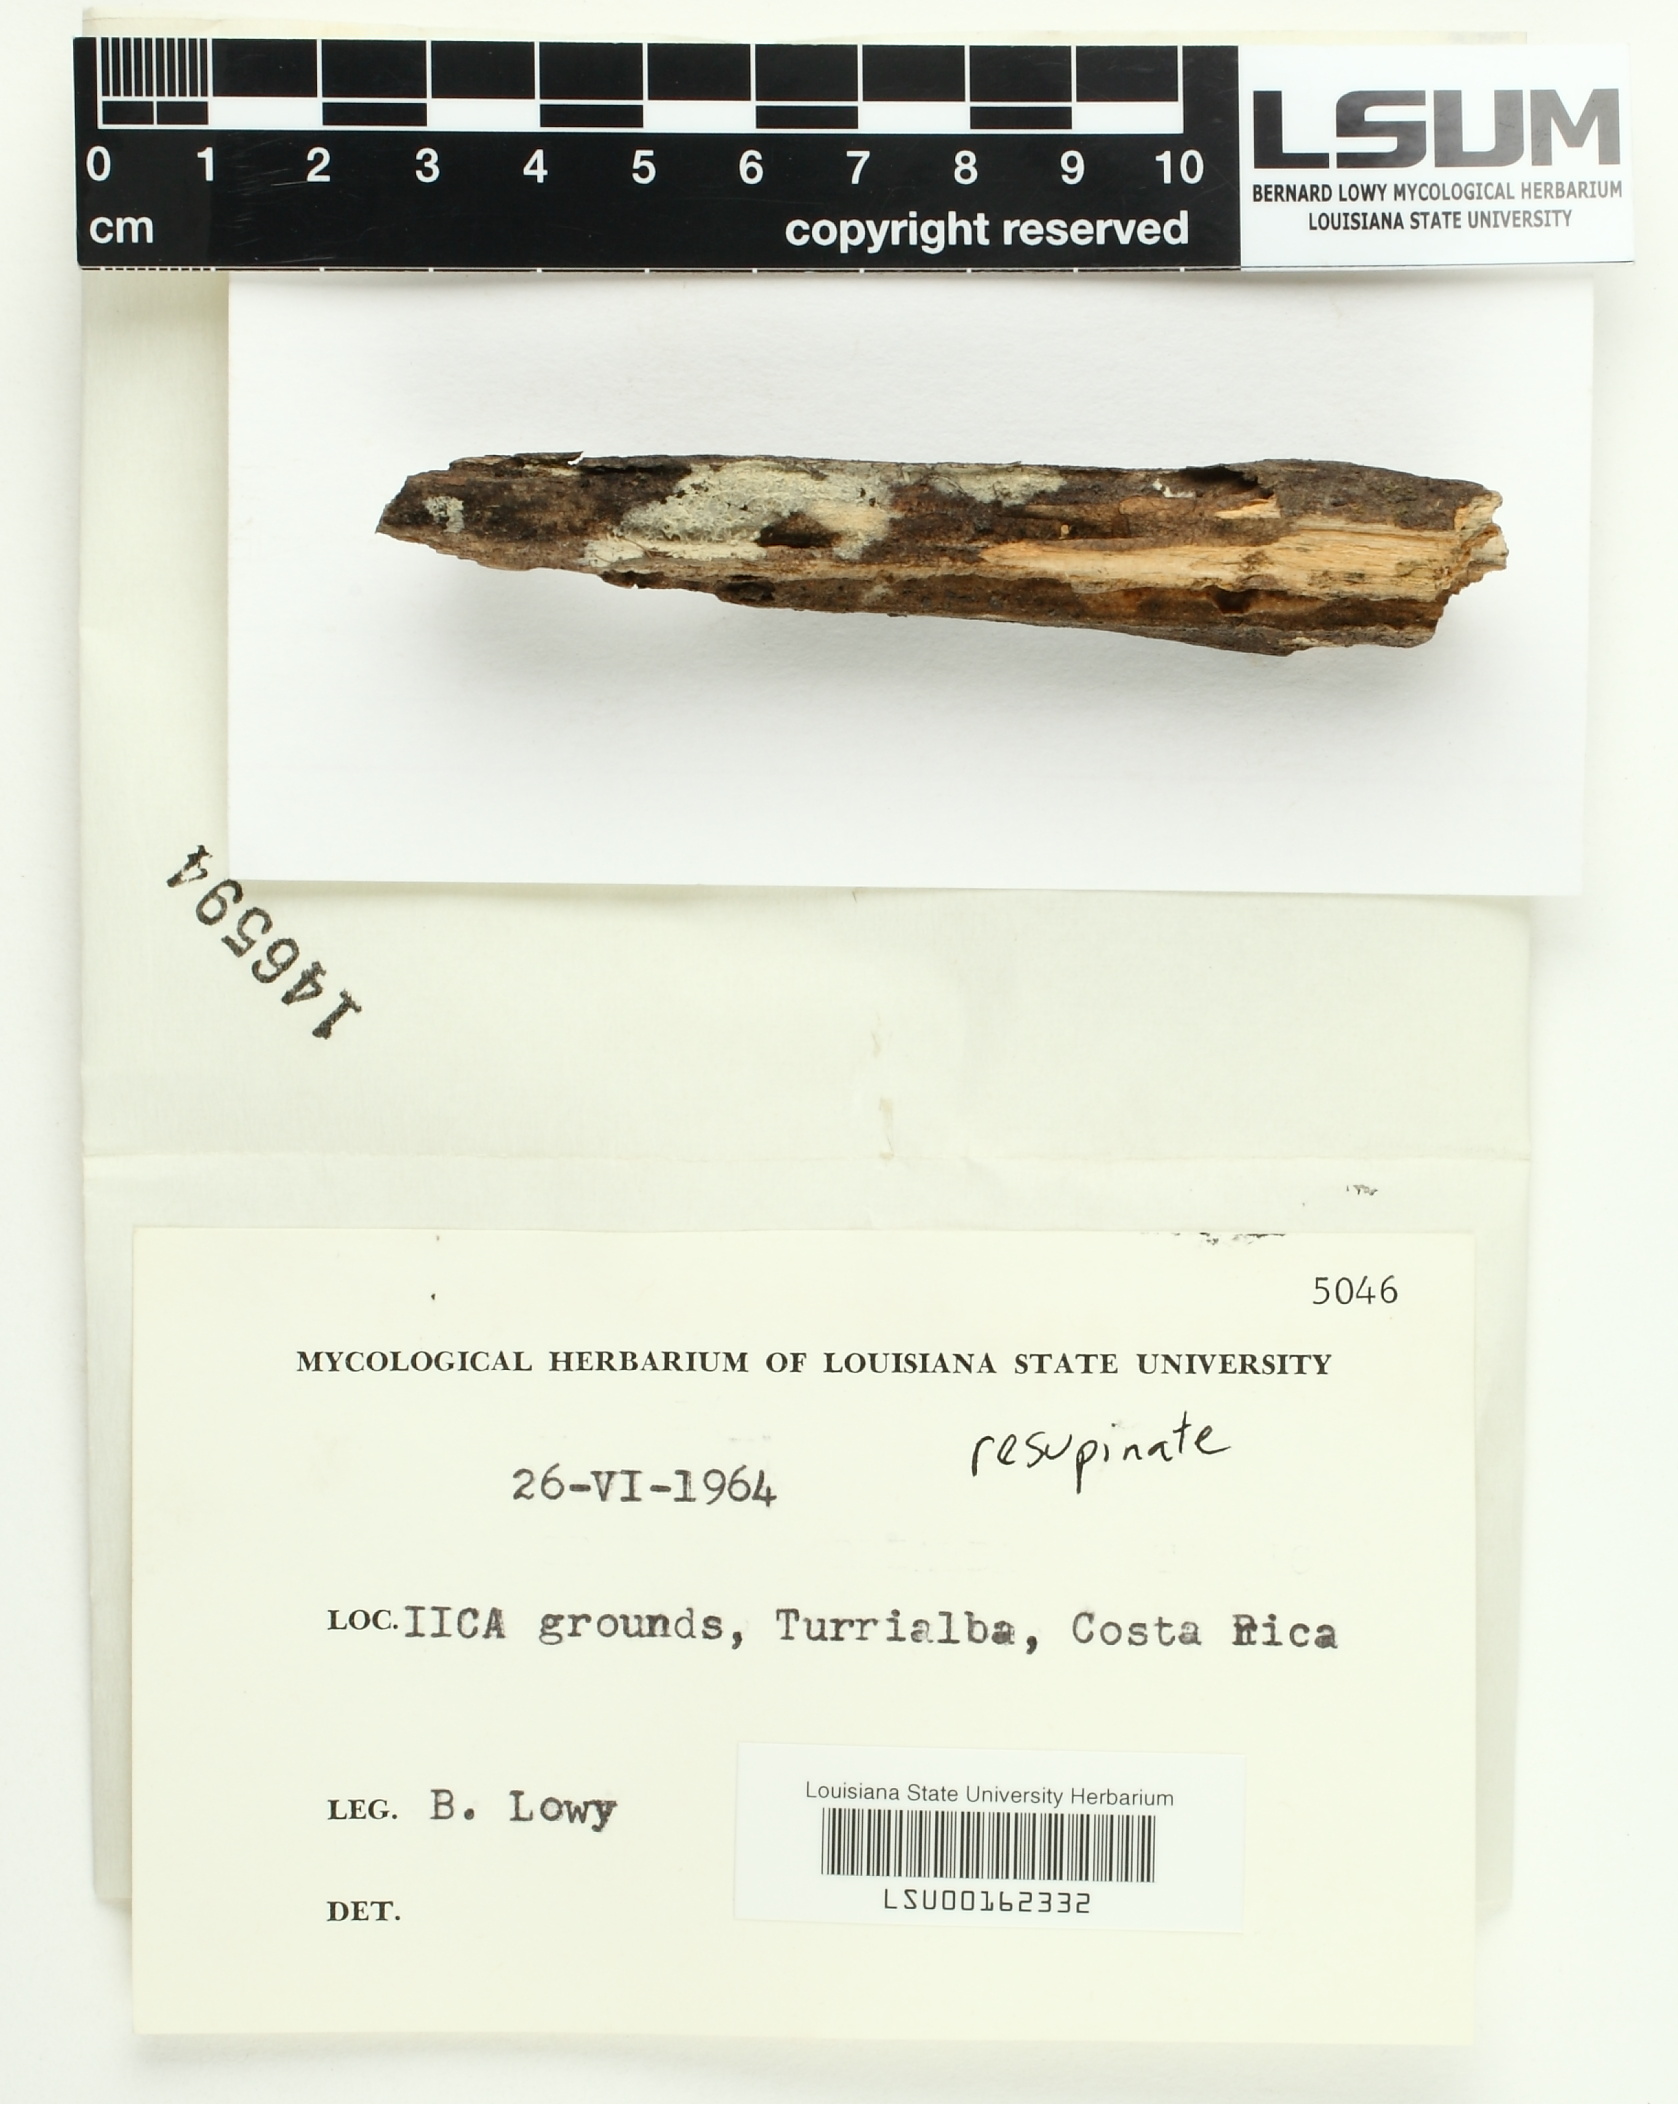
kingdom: Fungi
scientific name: Fungi
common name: Fungi
